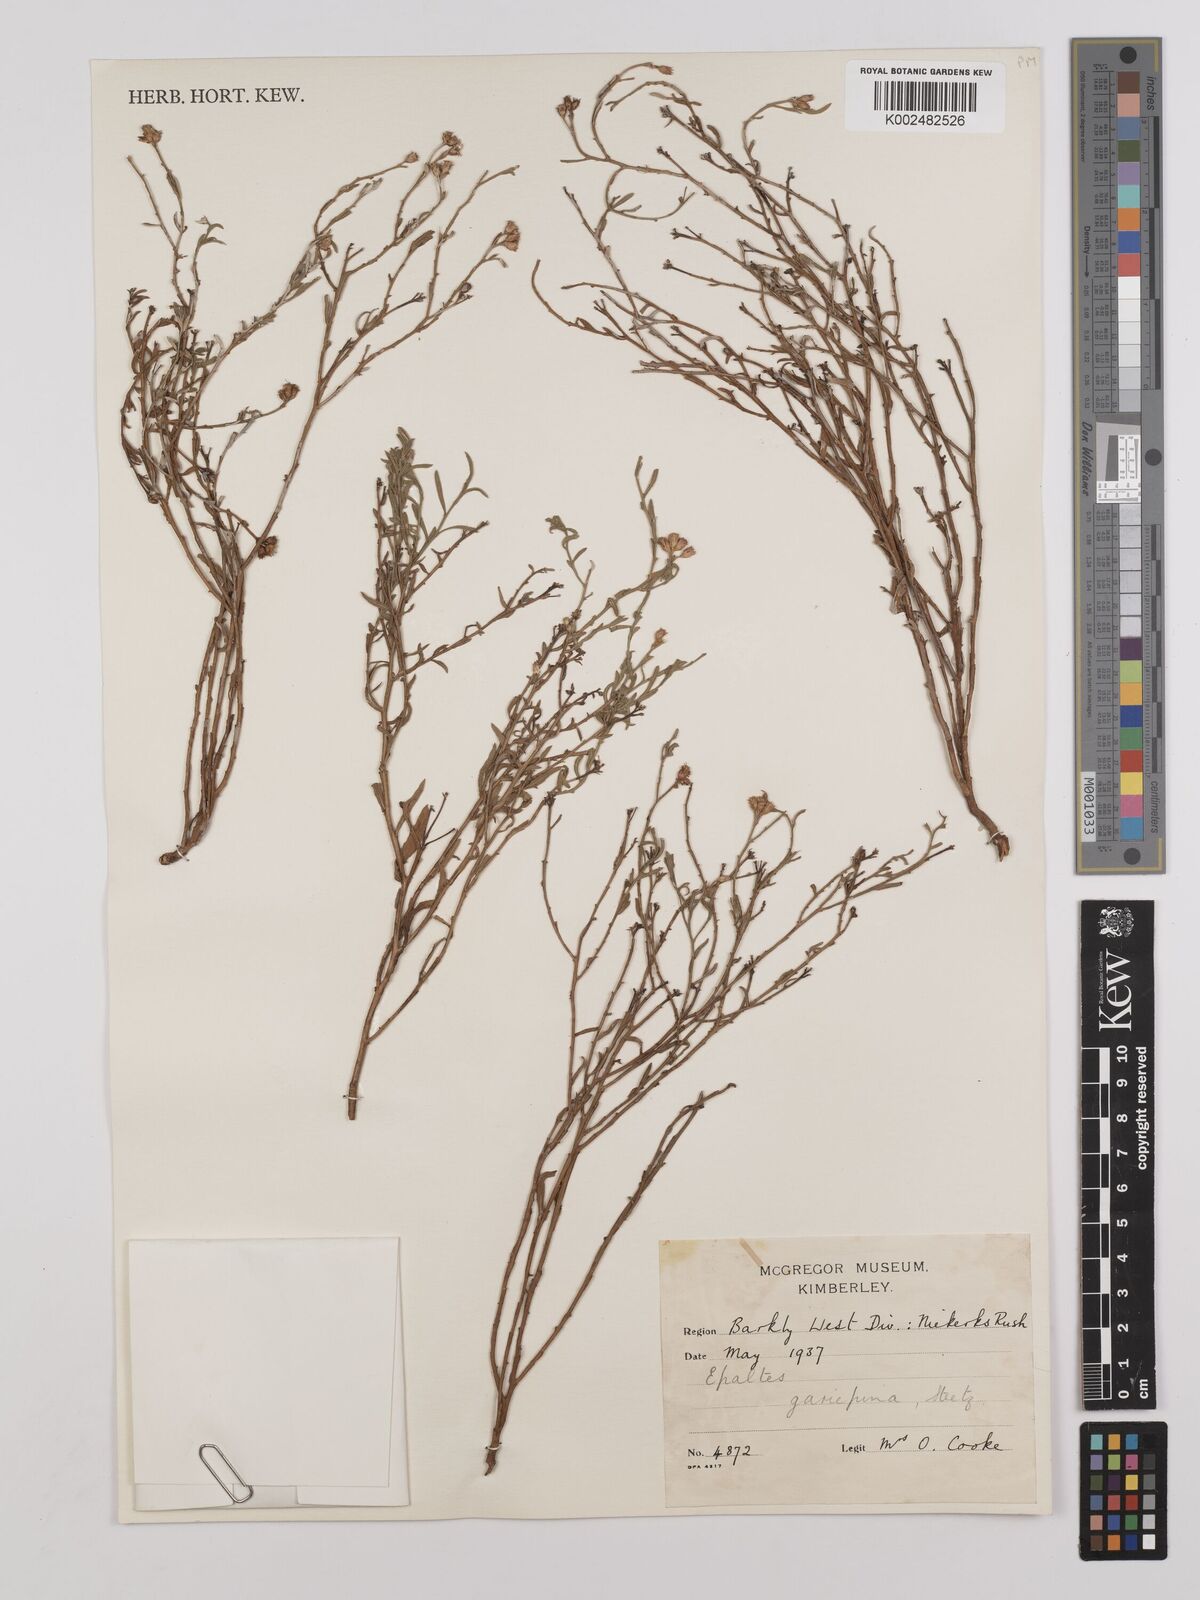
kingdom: Plantae
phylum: Tracheophyta
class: Magnoliopsida
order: Asterales
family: Asteraceae
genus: Litogyne
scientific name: Litogyne gariepina
